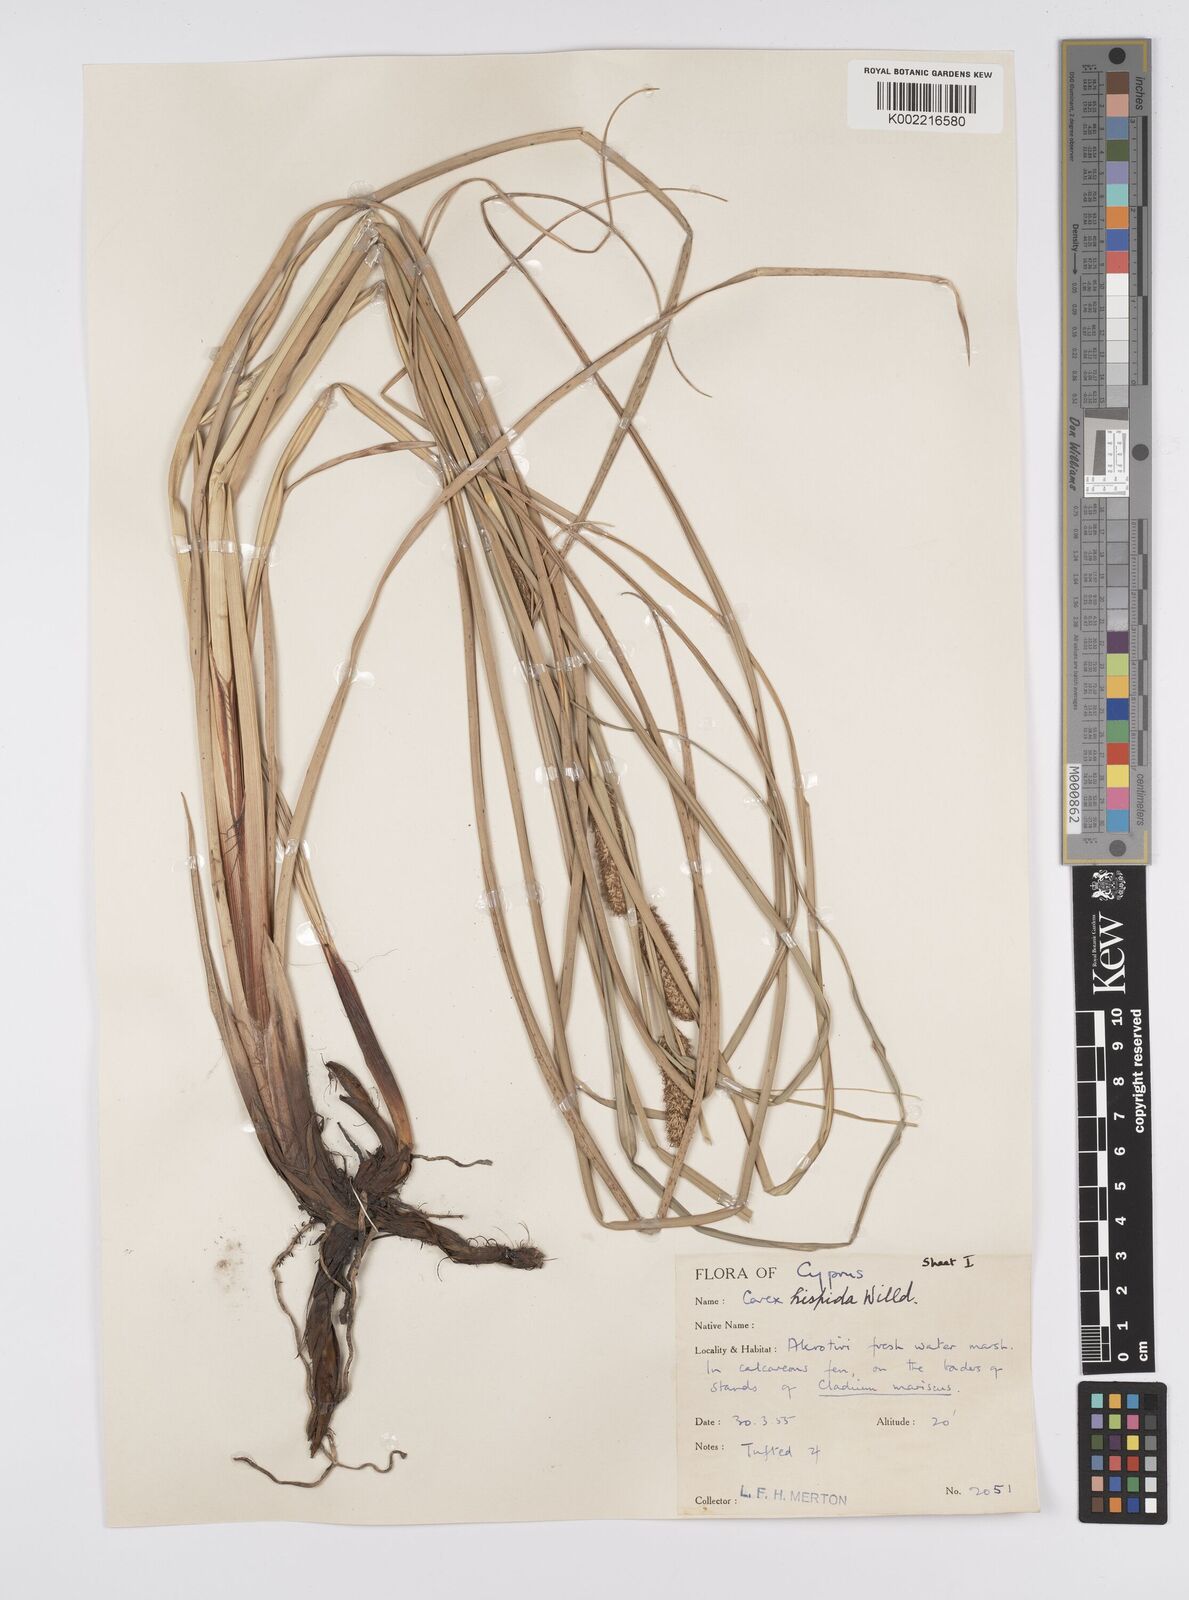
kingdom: Plantae
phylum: Tracheophyta
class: Liliopsida
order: Poales
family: Cyperaceae
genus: Carex
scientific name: Carex hispida
